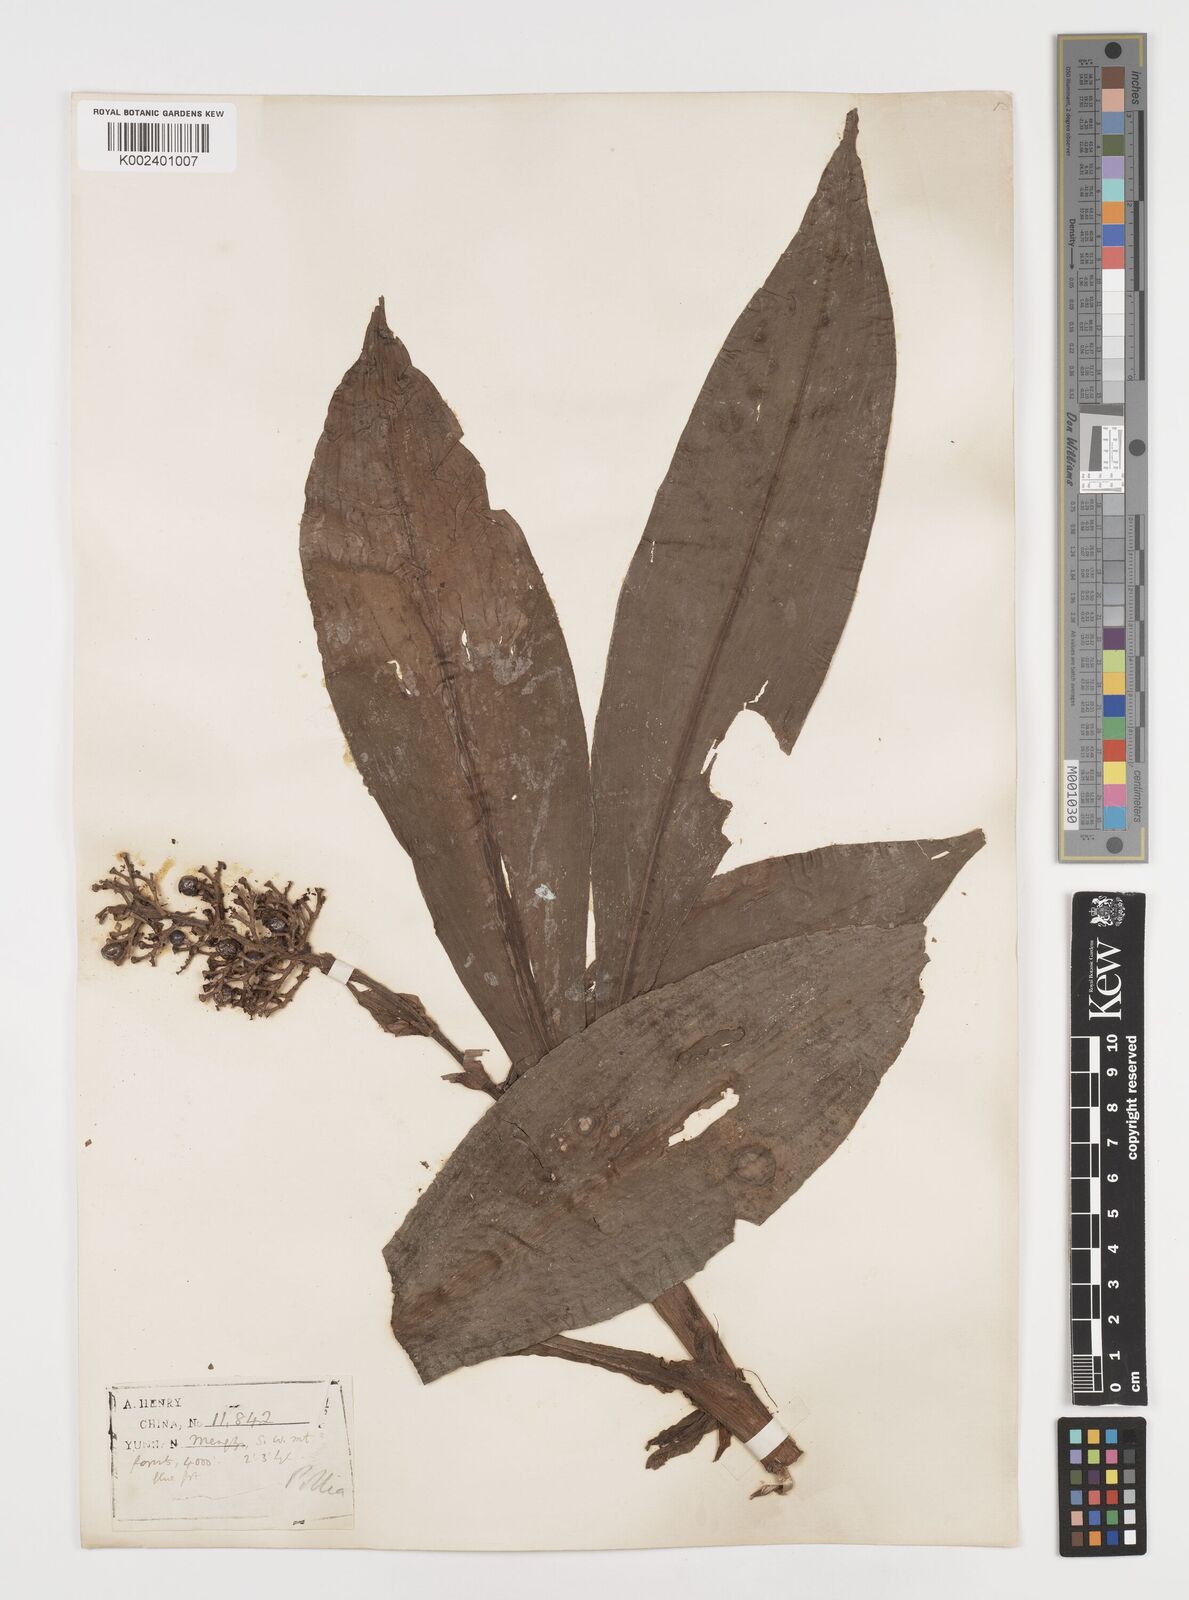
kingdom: Plantae
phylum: Tracheophyta
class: Liliopsida
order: Commelinales
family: Commelinaceae
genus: Pollia
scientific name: Pollia thyrsiflora
